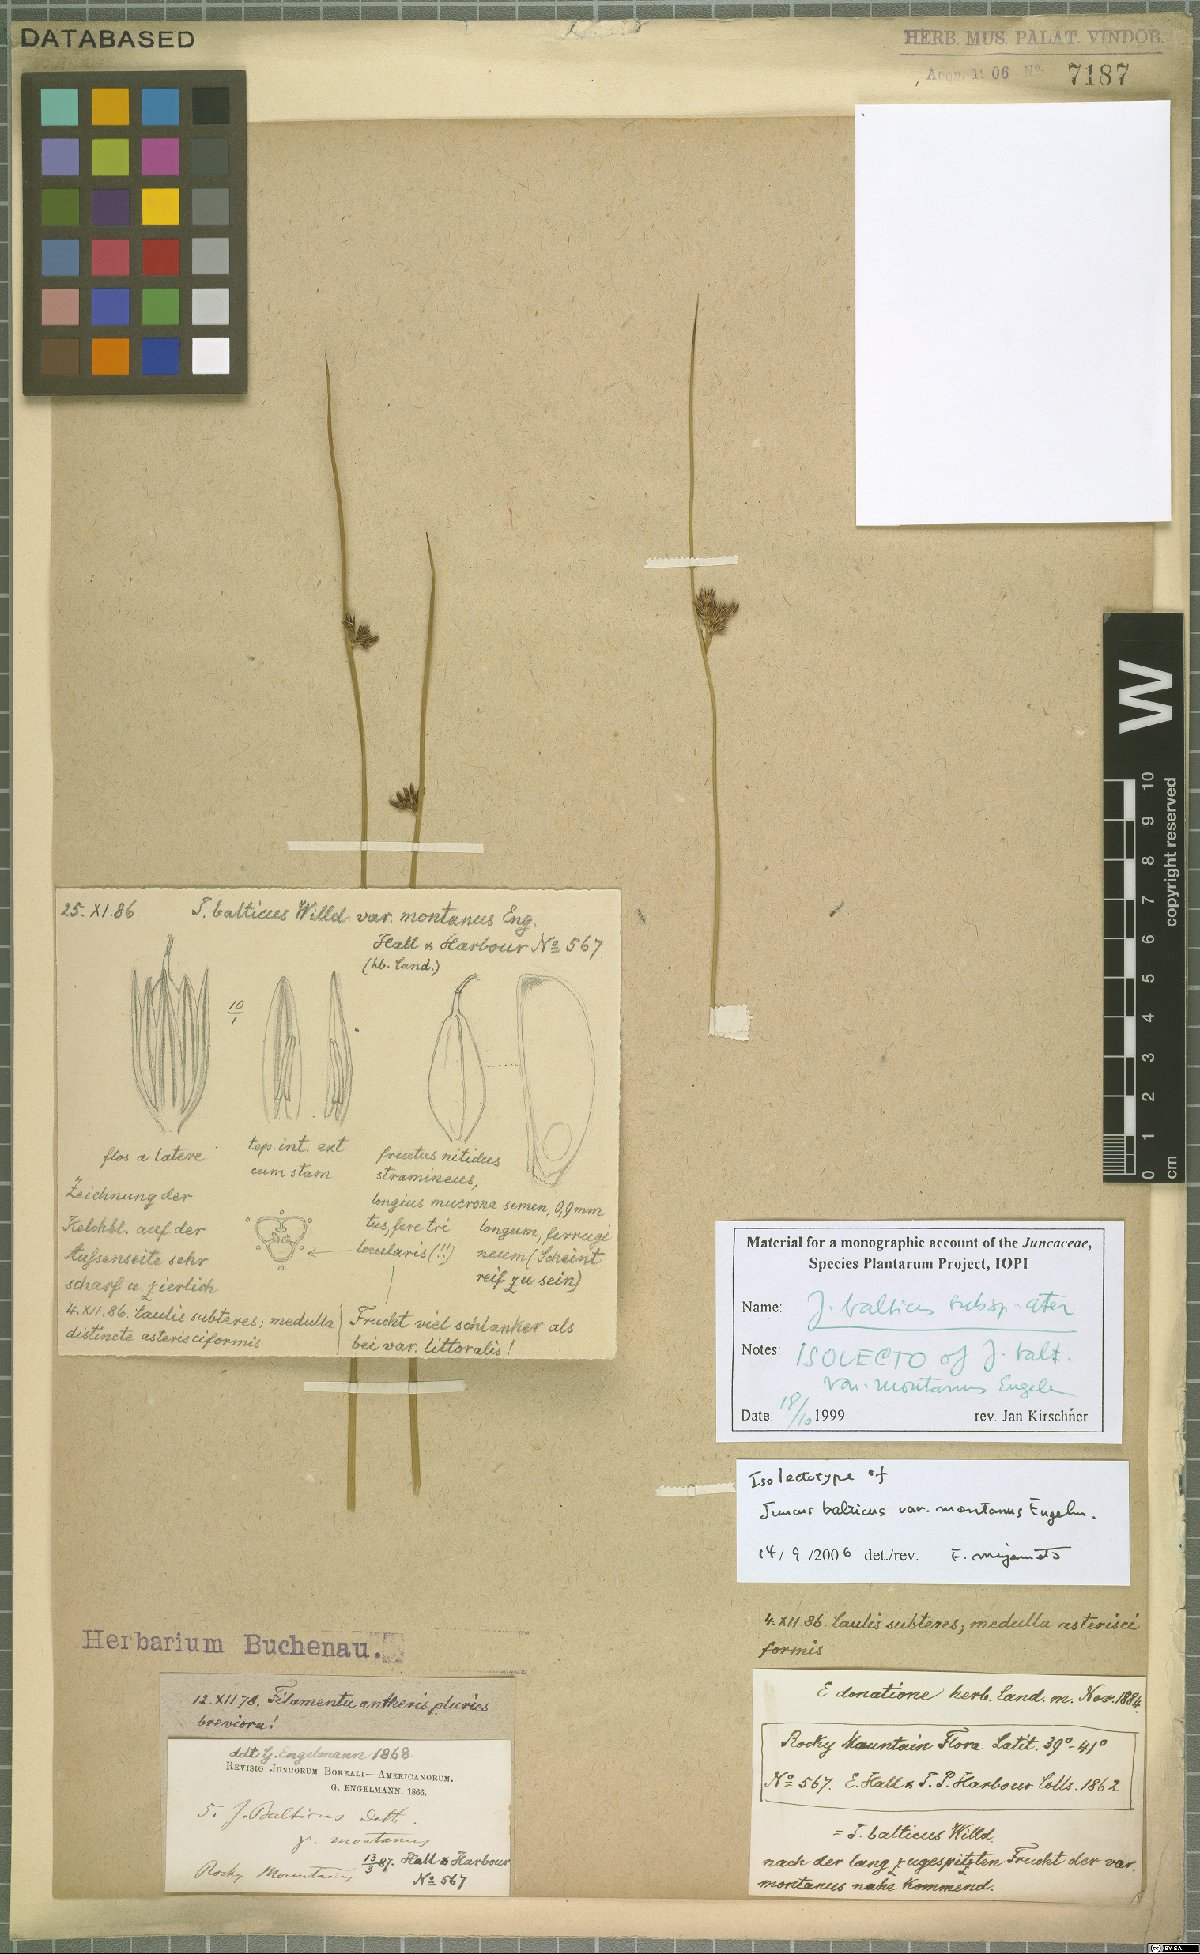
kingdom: Plantae
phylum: Tracheophyta
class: Liliopsida
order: Poales
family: Juncaceae
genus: Juncus
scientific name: Juncus balticus
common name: Baltic rush
